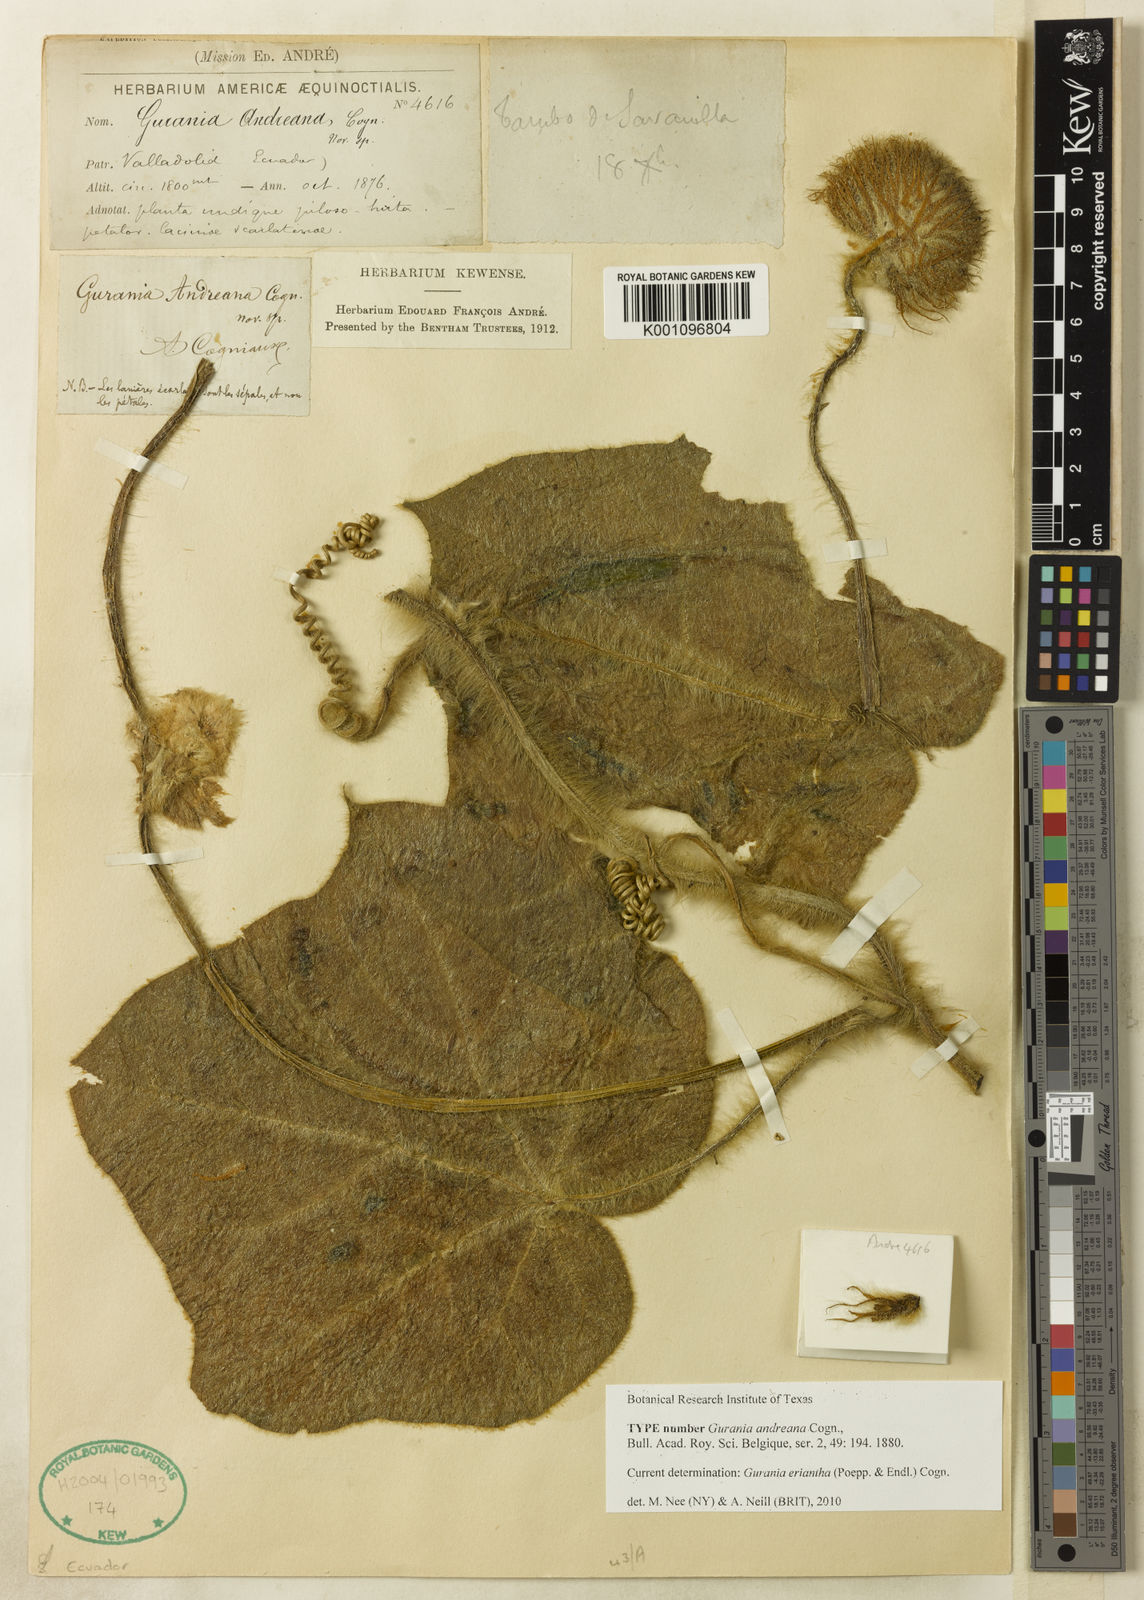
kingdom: Plantae
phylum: Tracheophyta
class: Magnoliopsida
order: Cucurbitales
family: Cucurbitaceae
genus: Gurania
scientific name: Gurania eriantha
